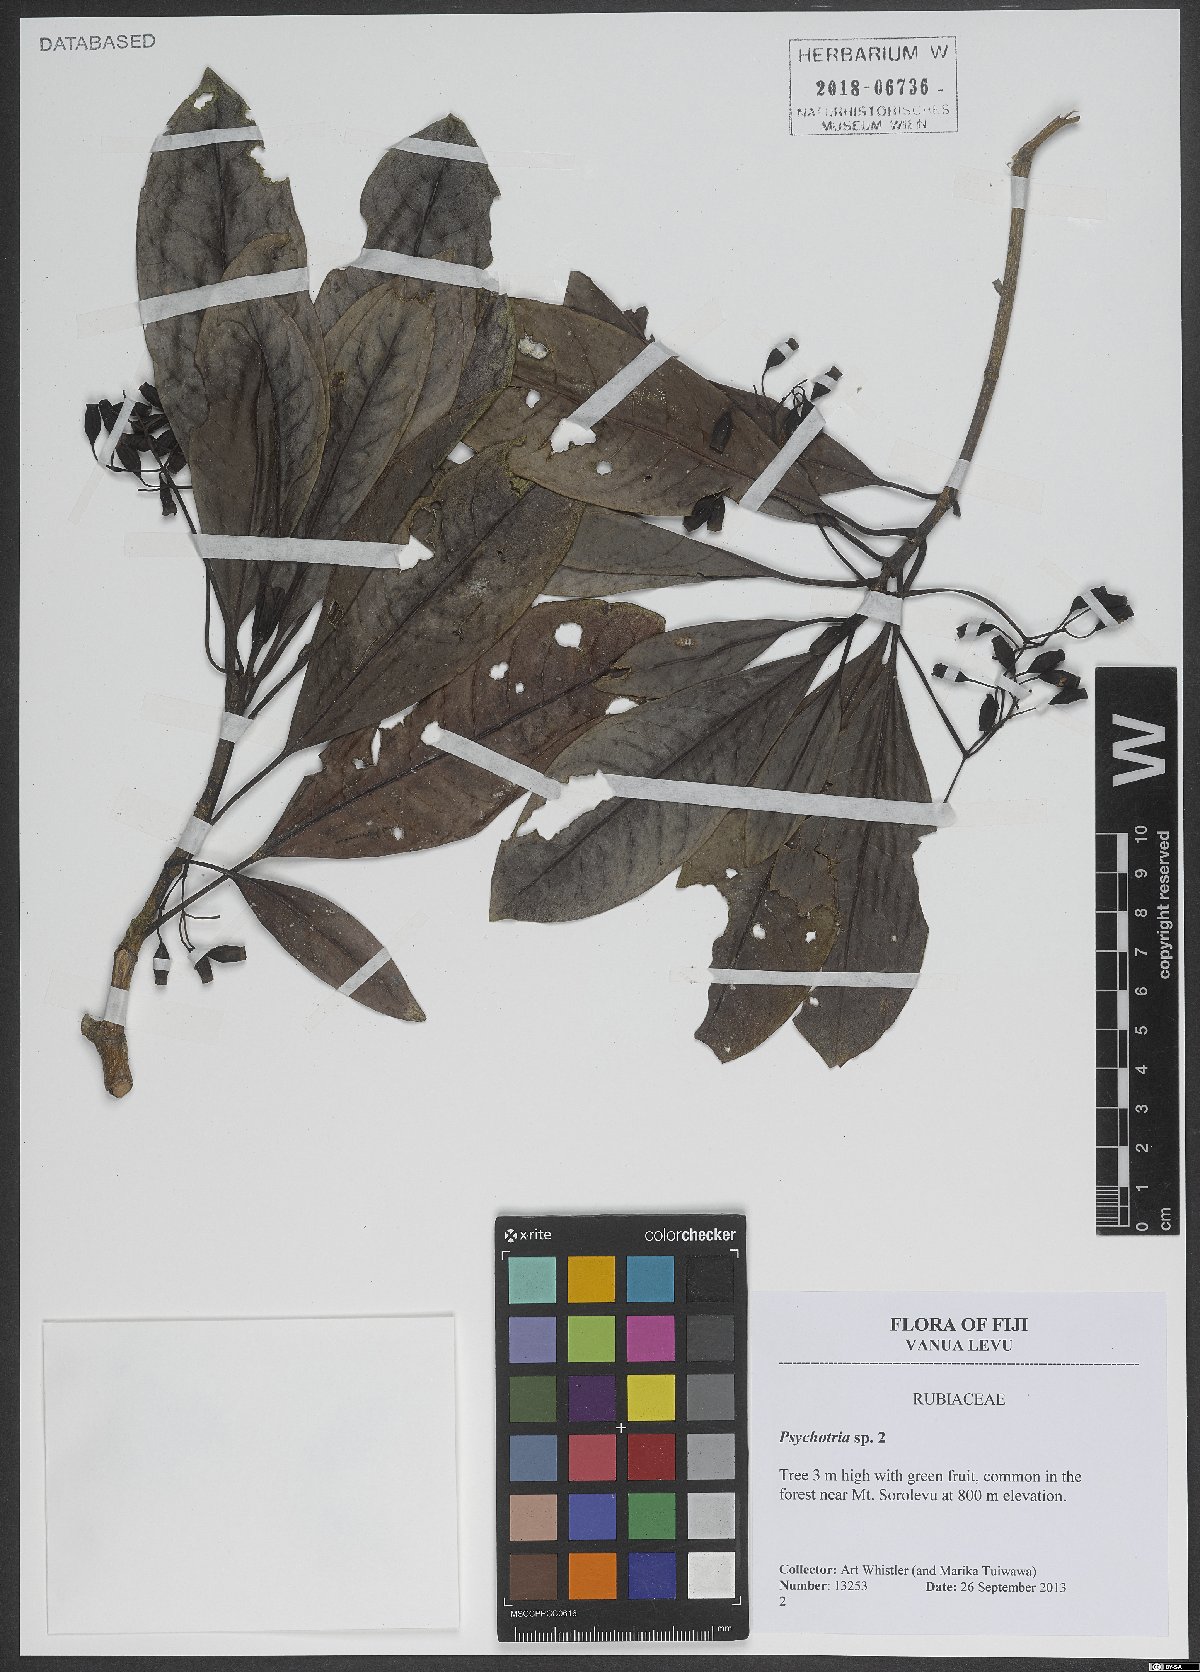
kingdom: Plantae
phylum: Tracheophyta
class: Magnoliopsida
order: Gentianales
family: Rubiaceae
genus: Psychotria
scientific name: Psychotria
